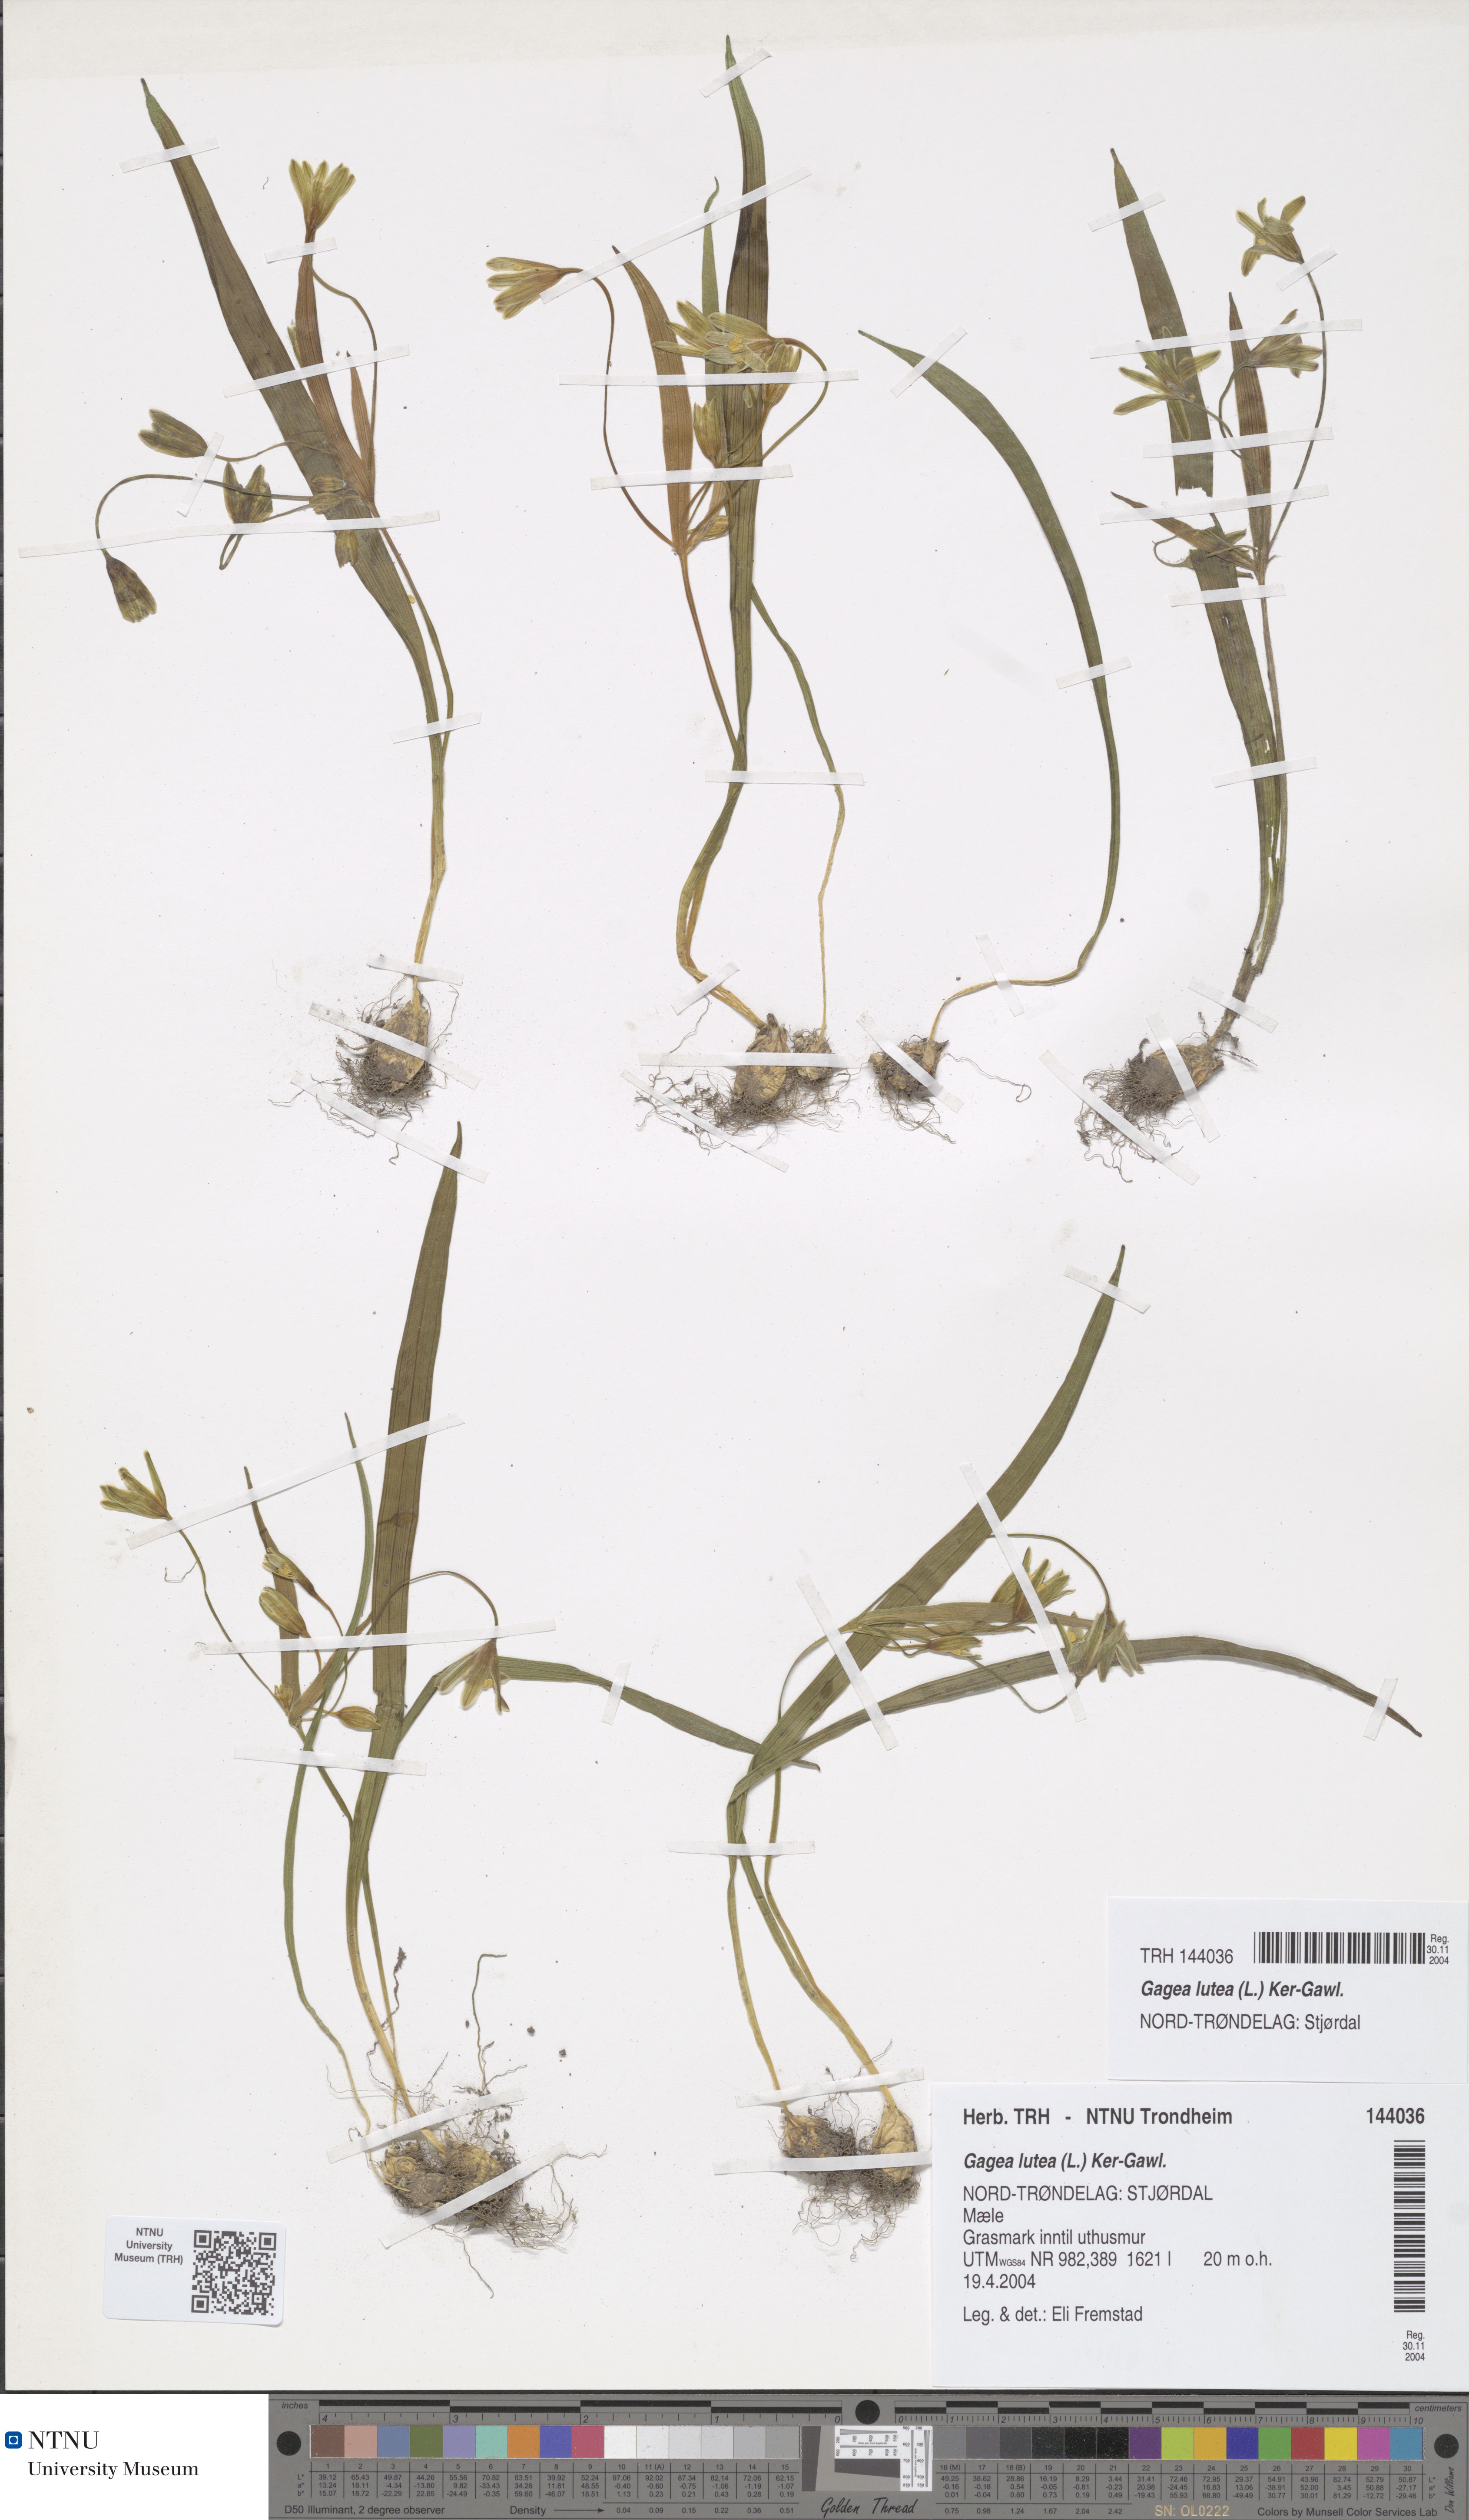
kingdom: Plantae
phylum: Tracheophyta
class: Liliopsida
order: Liliales
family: Liliaceae
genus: Gagea
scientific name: Gagea lutea
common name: Yellow star-of-bethlehem
